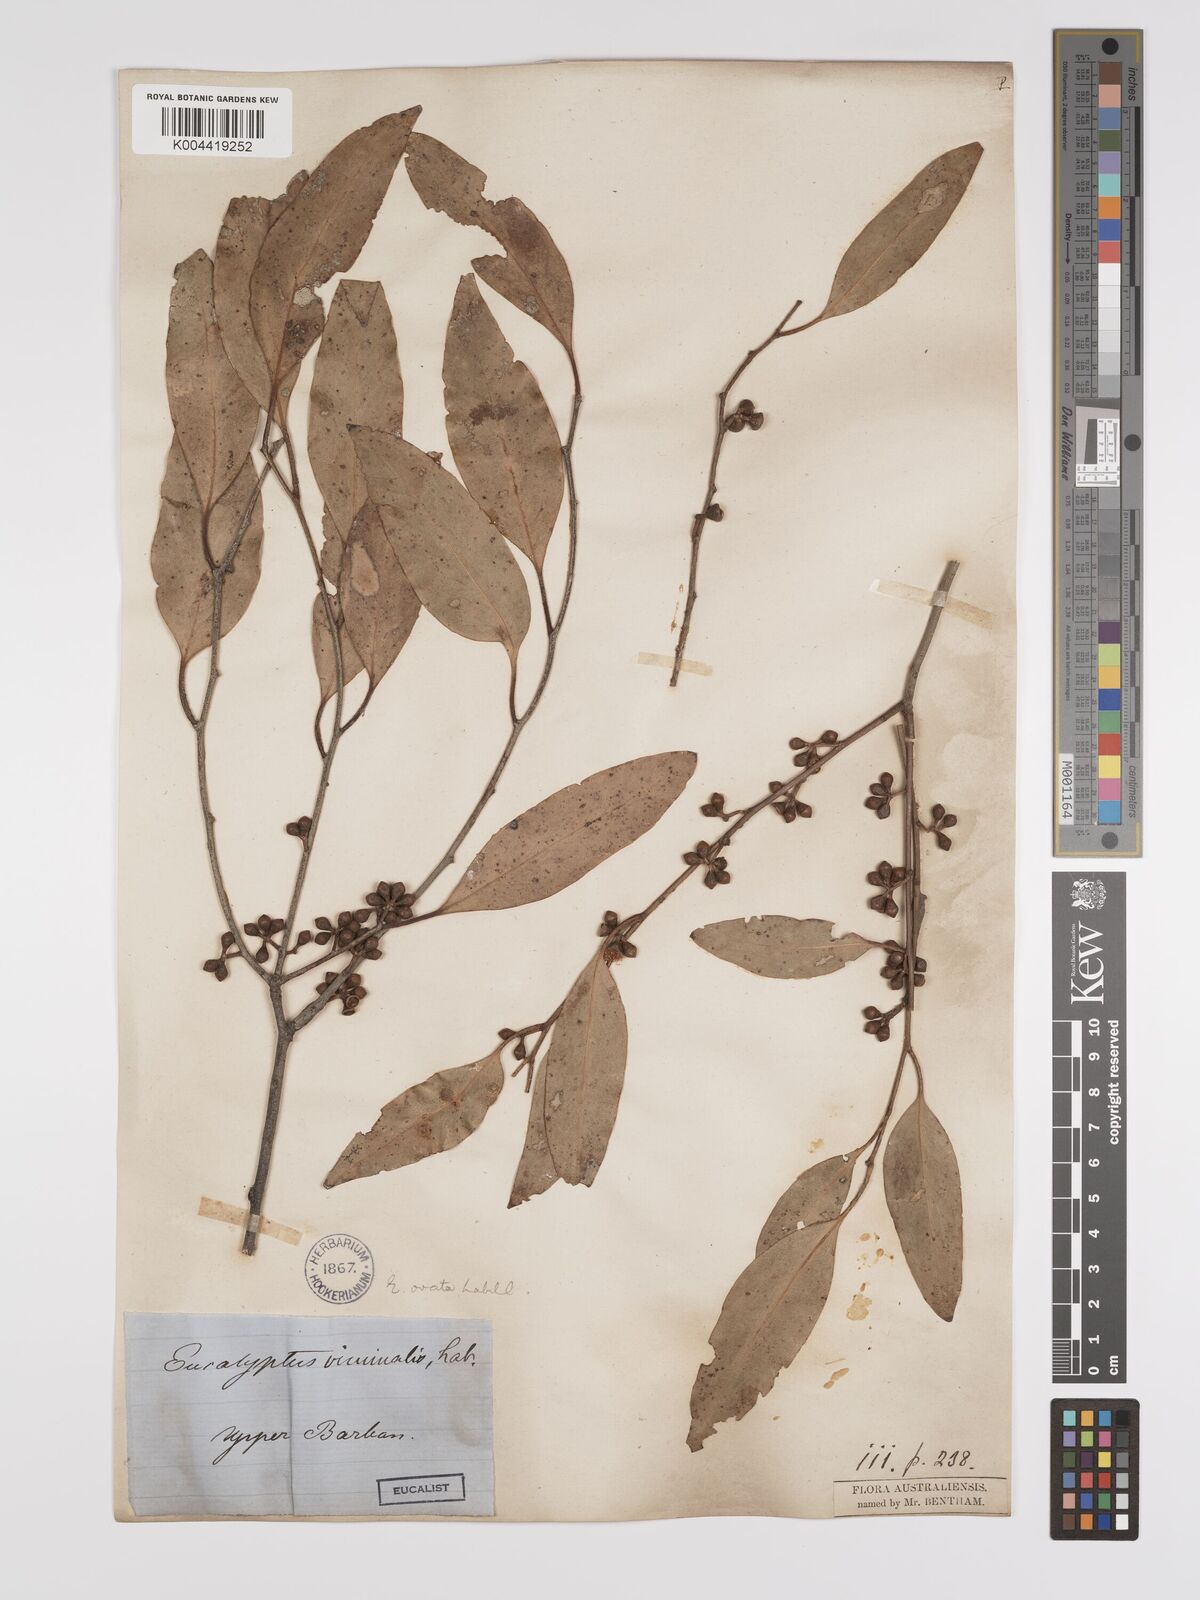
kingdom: Plantae
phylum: Tracheophyta
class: Magnoliopsida
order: Myrtales
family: Myrtaceae
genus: Eucalyptus
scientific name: Eucalyptus ovata
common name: Black-gum
